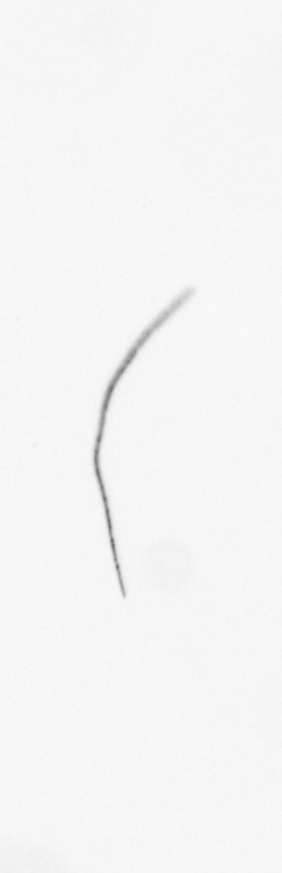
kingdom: Chromista
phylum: Ochrophyta
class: Bacillariophyceae
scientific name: Bacillariophyceae
